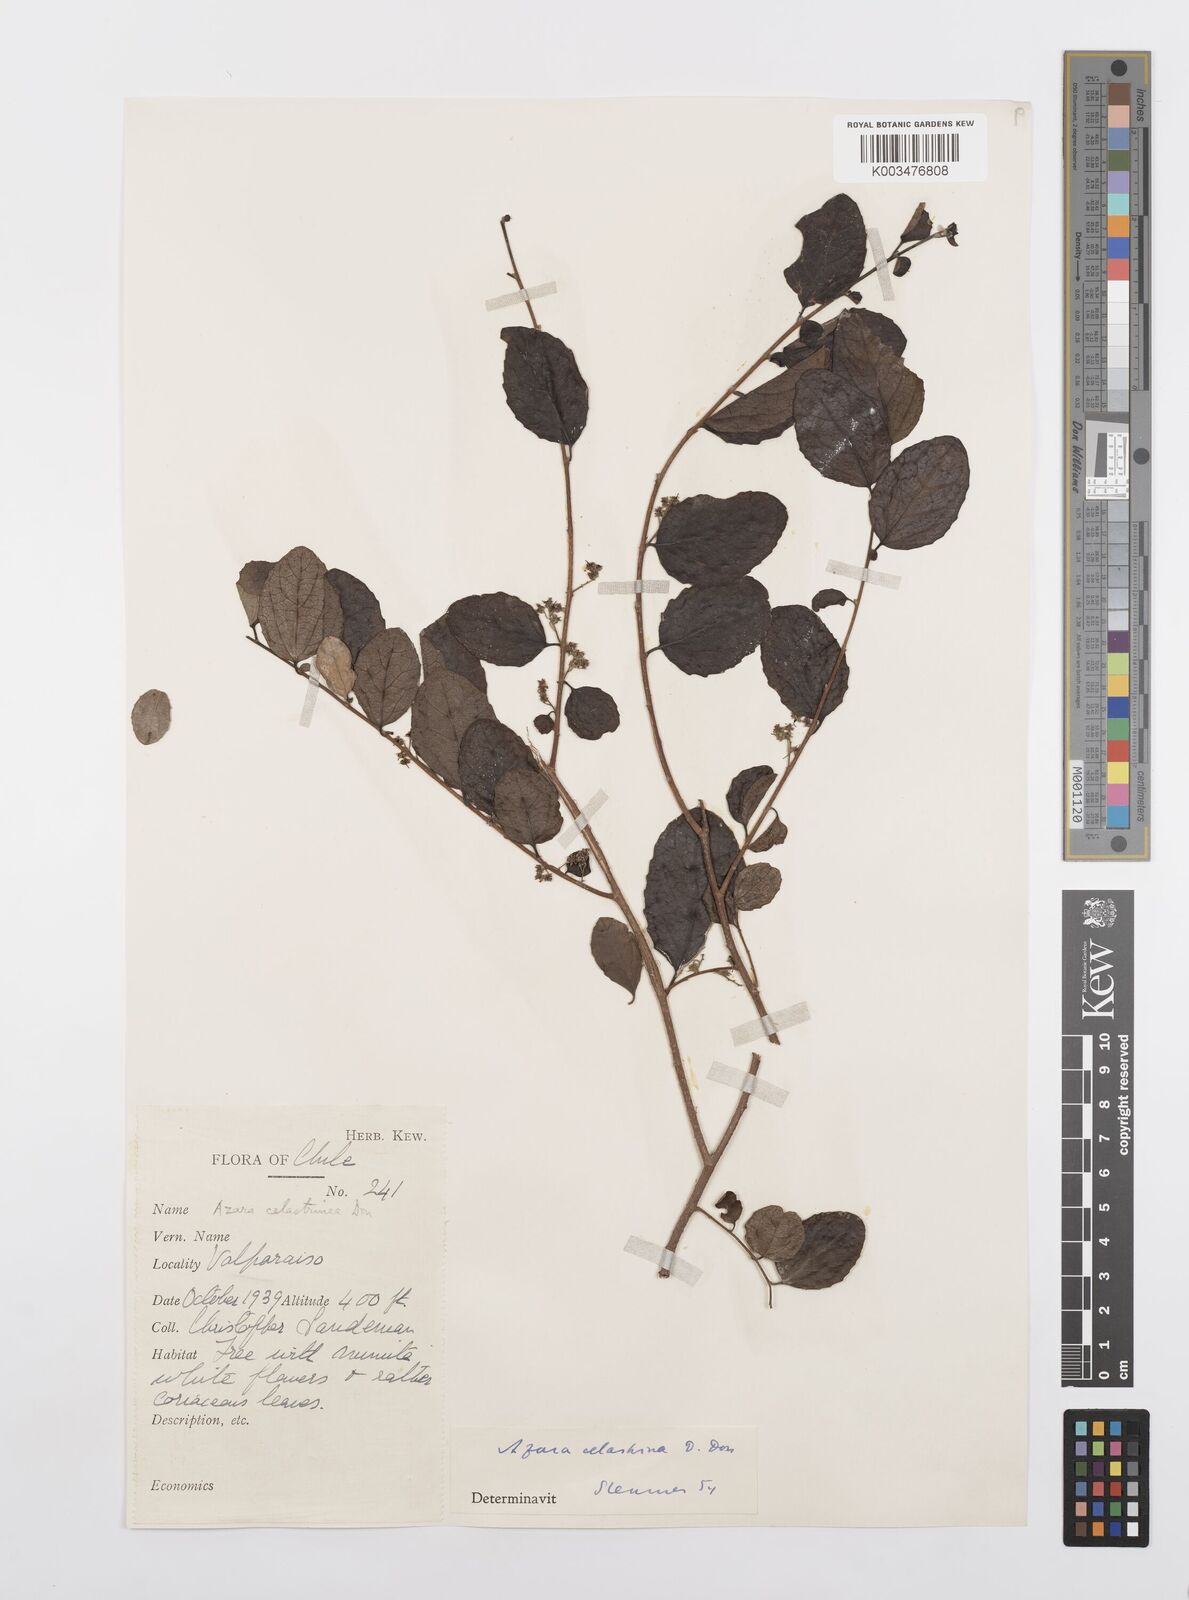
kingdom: Plantae
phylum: Tracheophyta
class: Magnoliopsida
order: Malpighiales
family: Salicaceae
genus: Azara
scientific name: Azara celastrina
